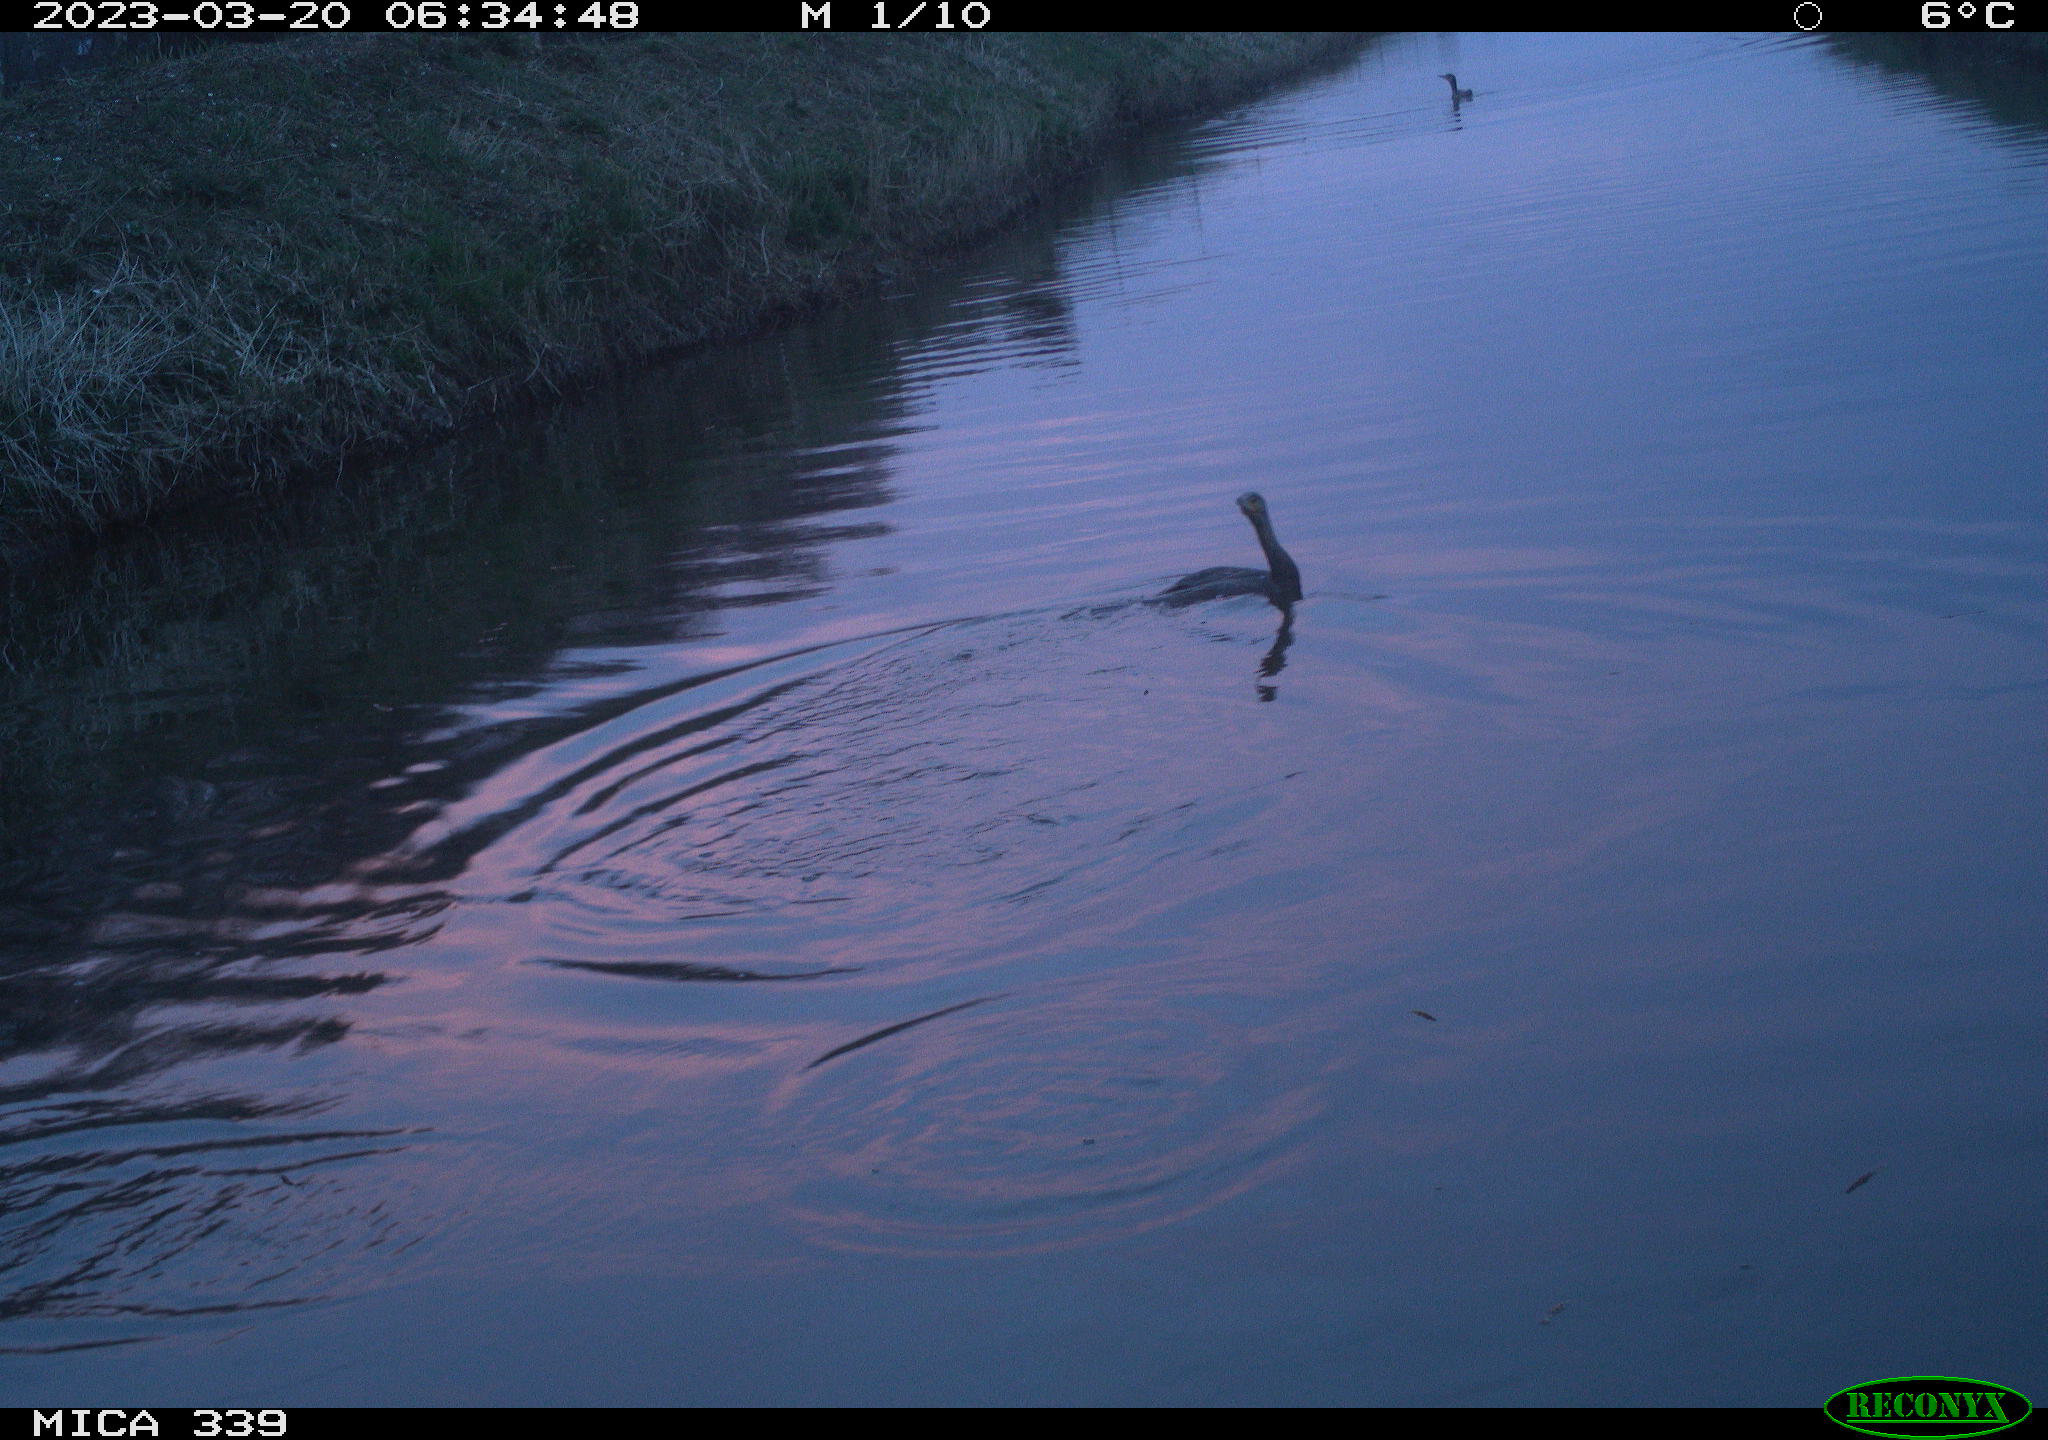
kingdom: Animalia
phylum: Chordata
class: Aves
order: Anseriformes
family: Anatidae
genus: Anas
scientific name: Anas
